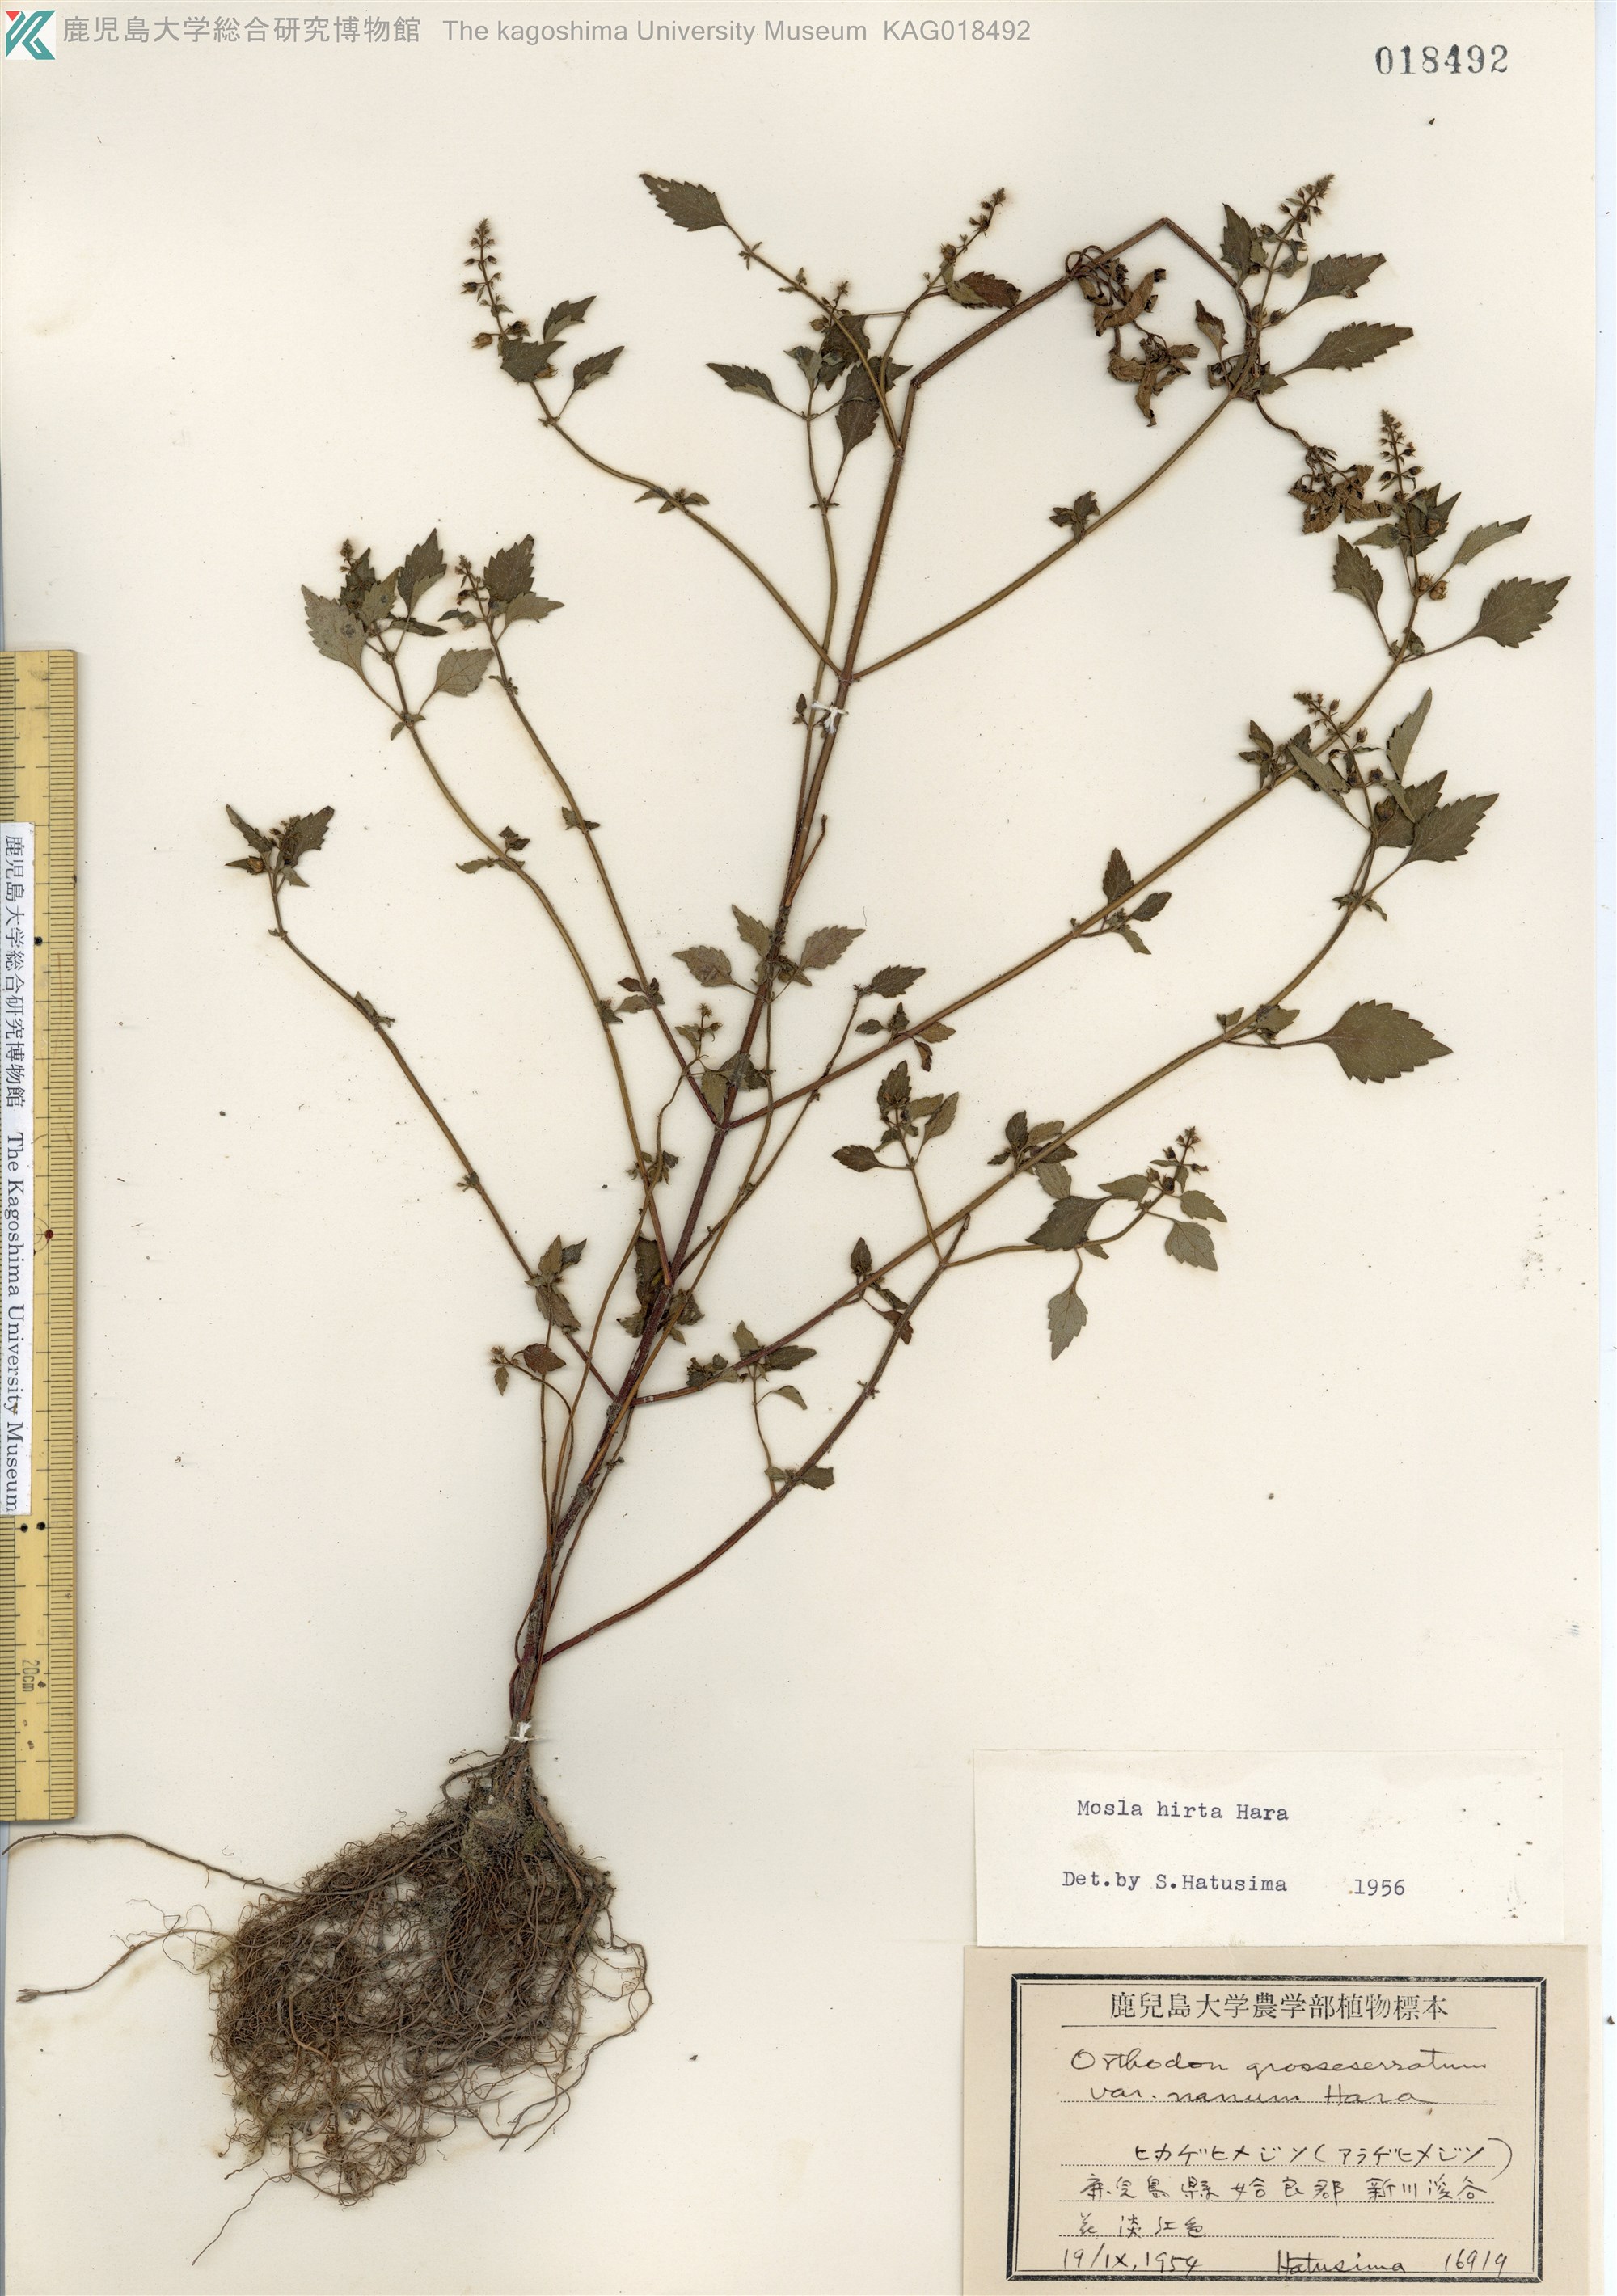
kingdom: Plantae
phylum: Tracheophyta
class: Magnoliopsida
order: Lamiales
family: Lamiaceae
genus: Mosla
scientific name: Mosla dianthera
